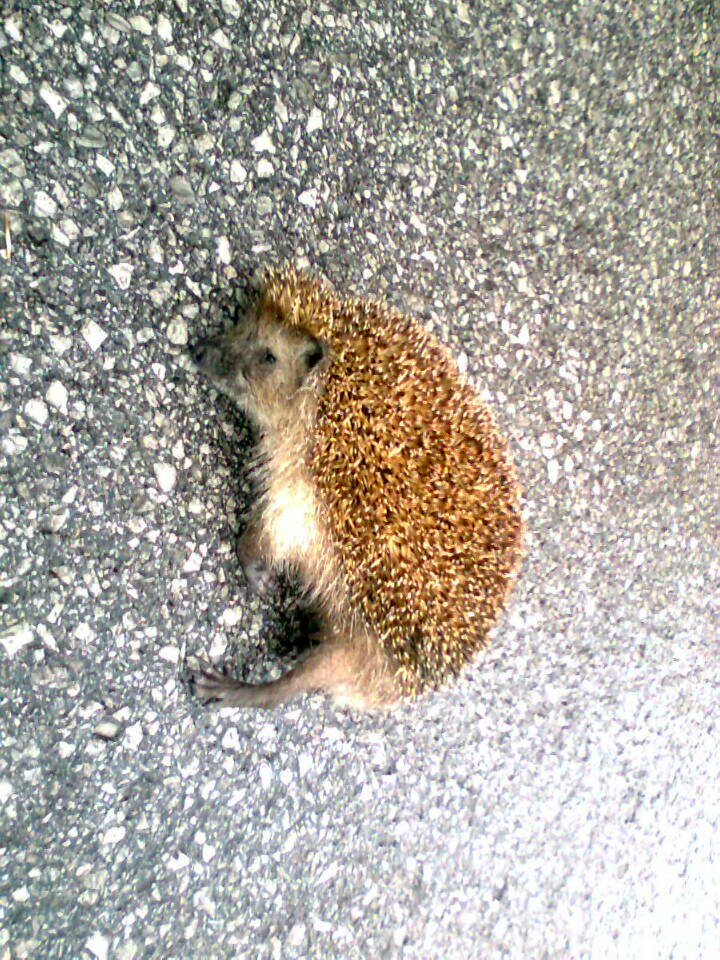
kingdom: Animalia
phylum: Chordata
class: Mammalia
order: Erinaceomorpha
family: Erinaceidae
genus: Erinaceus
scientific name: Erinaceus
